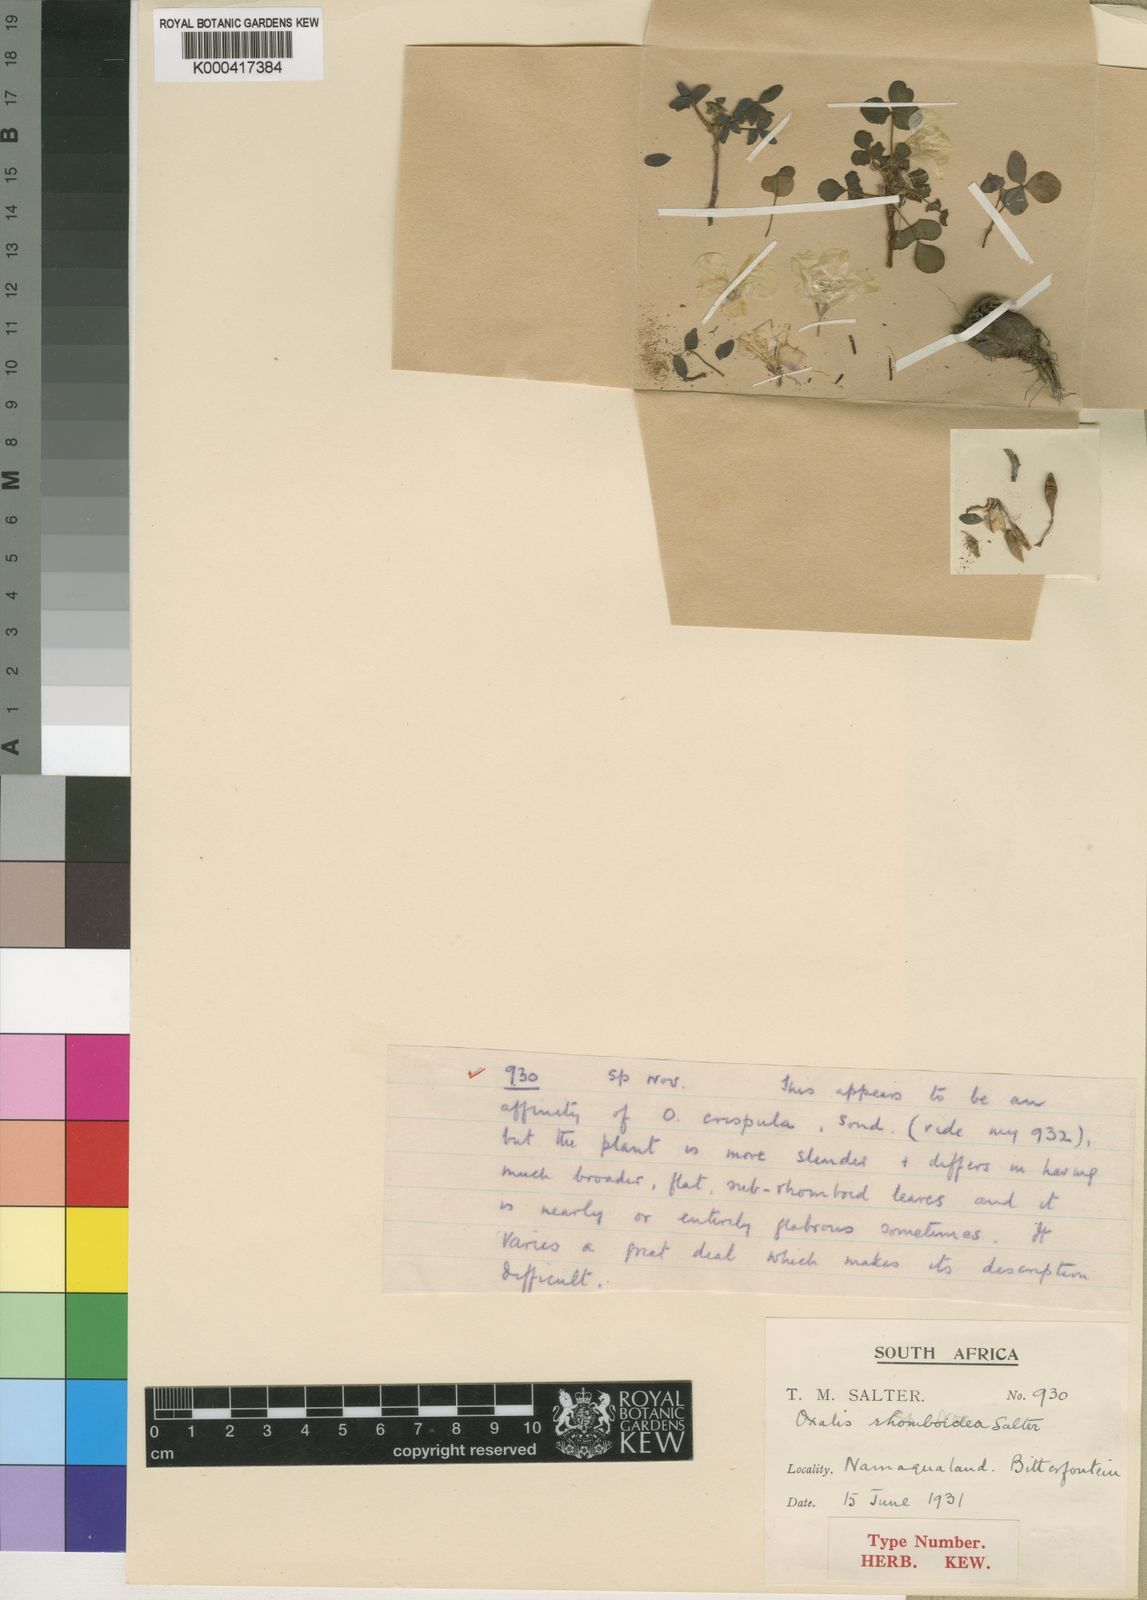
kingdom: Plantae
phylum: Tracheophyta
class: Magnoliopsida
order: Oxalidales
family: Oxalidaceae
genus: Oxalis
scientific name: Oxalis rhomboidea
